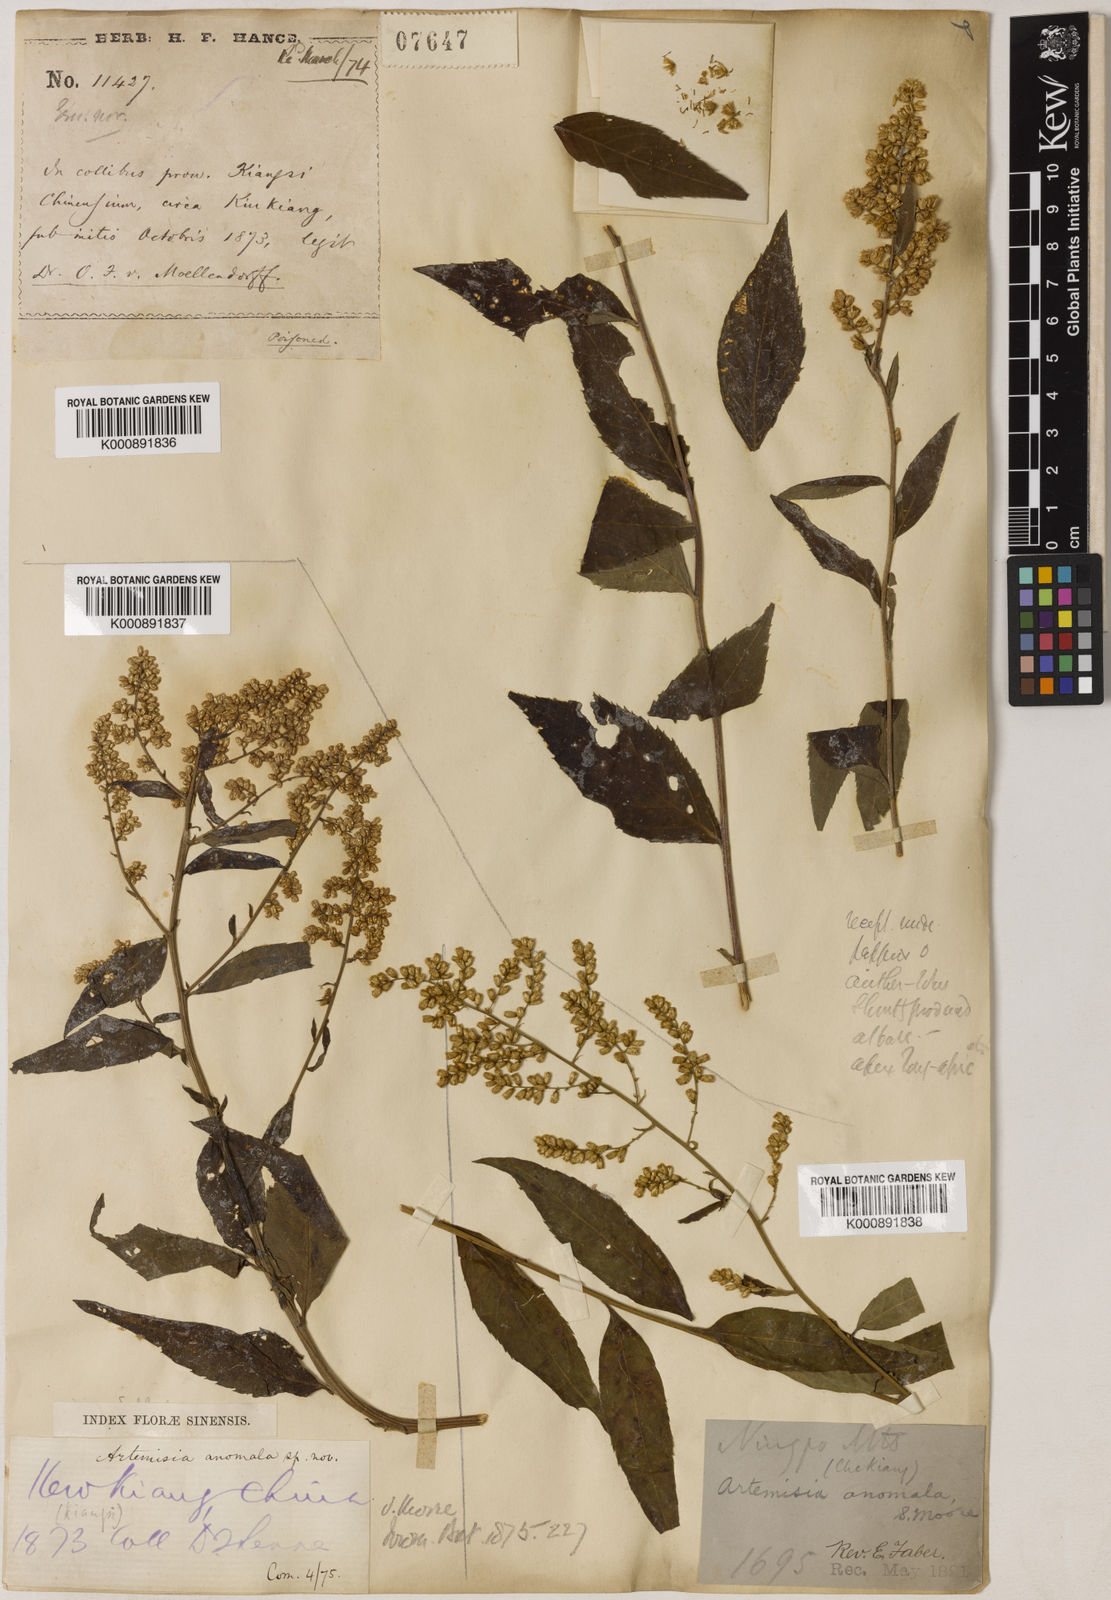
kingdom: Plantae
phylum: Tracheophyta
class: Magnoliopsida
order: Asterales
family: Asteraceae
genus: Artemisia
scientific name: Artemisia anomala
